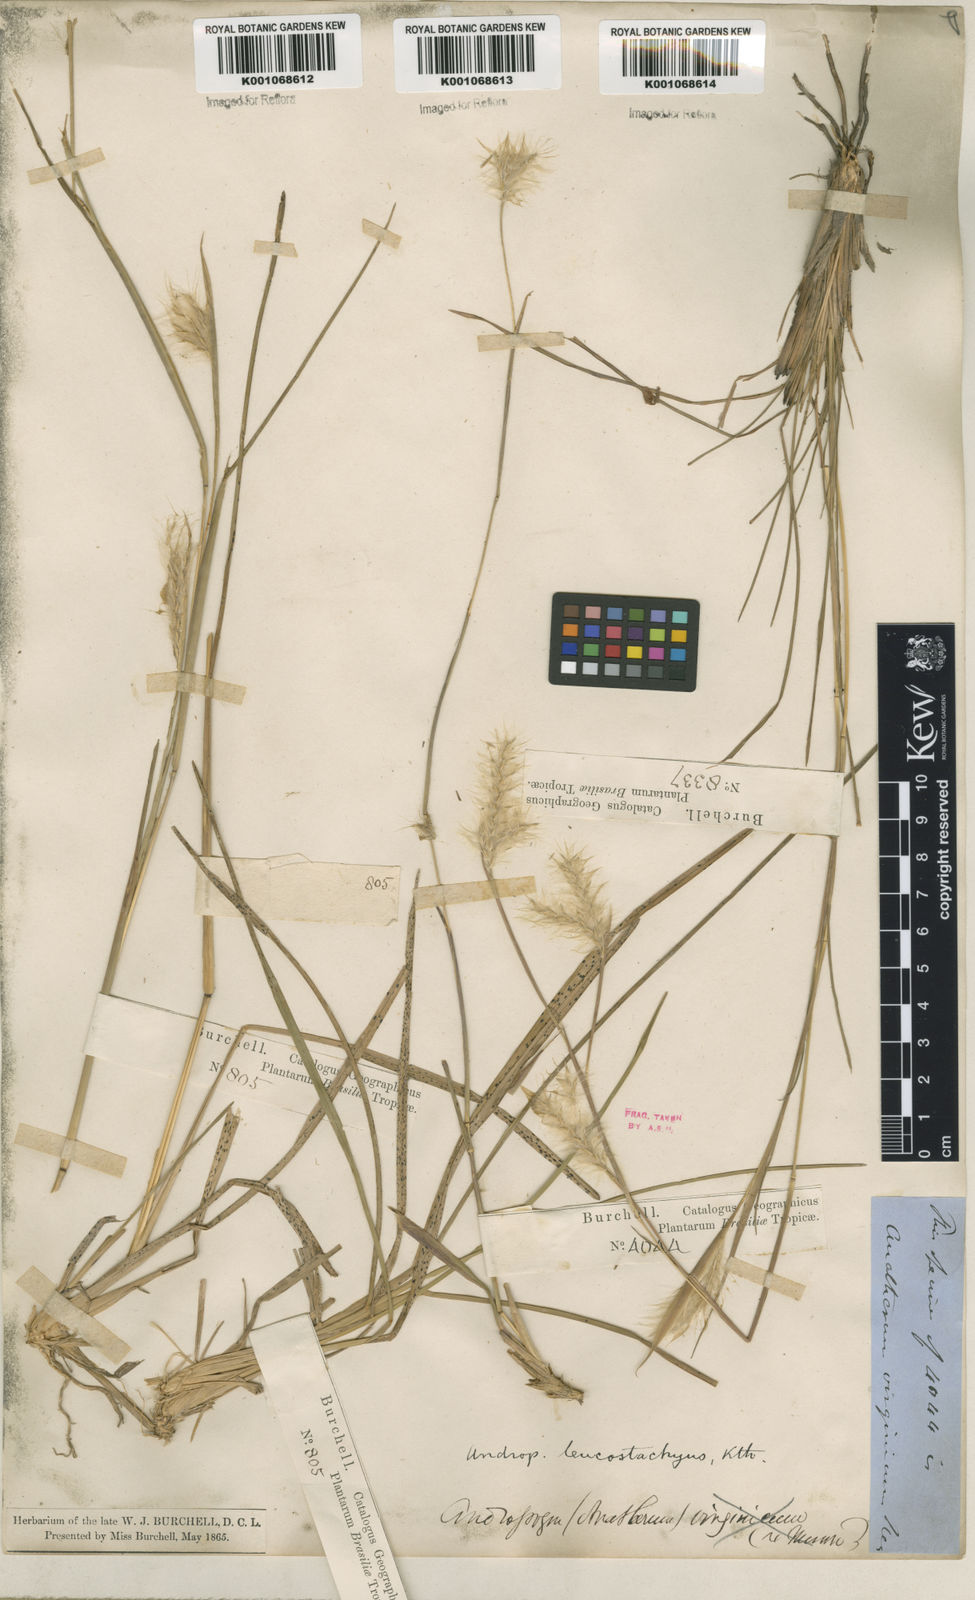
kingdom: Plantae
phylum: Tracheophyta
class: Liliopsida
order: Poales
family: Poaceae
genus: Andropogon
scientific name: Andropogon selloanus
